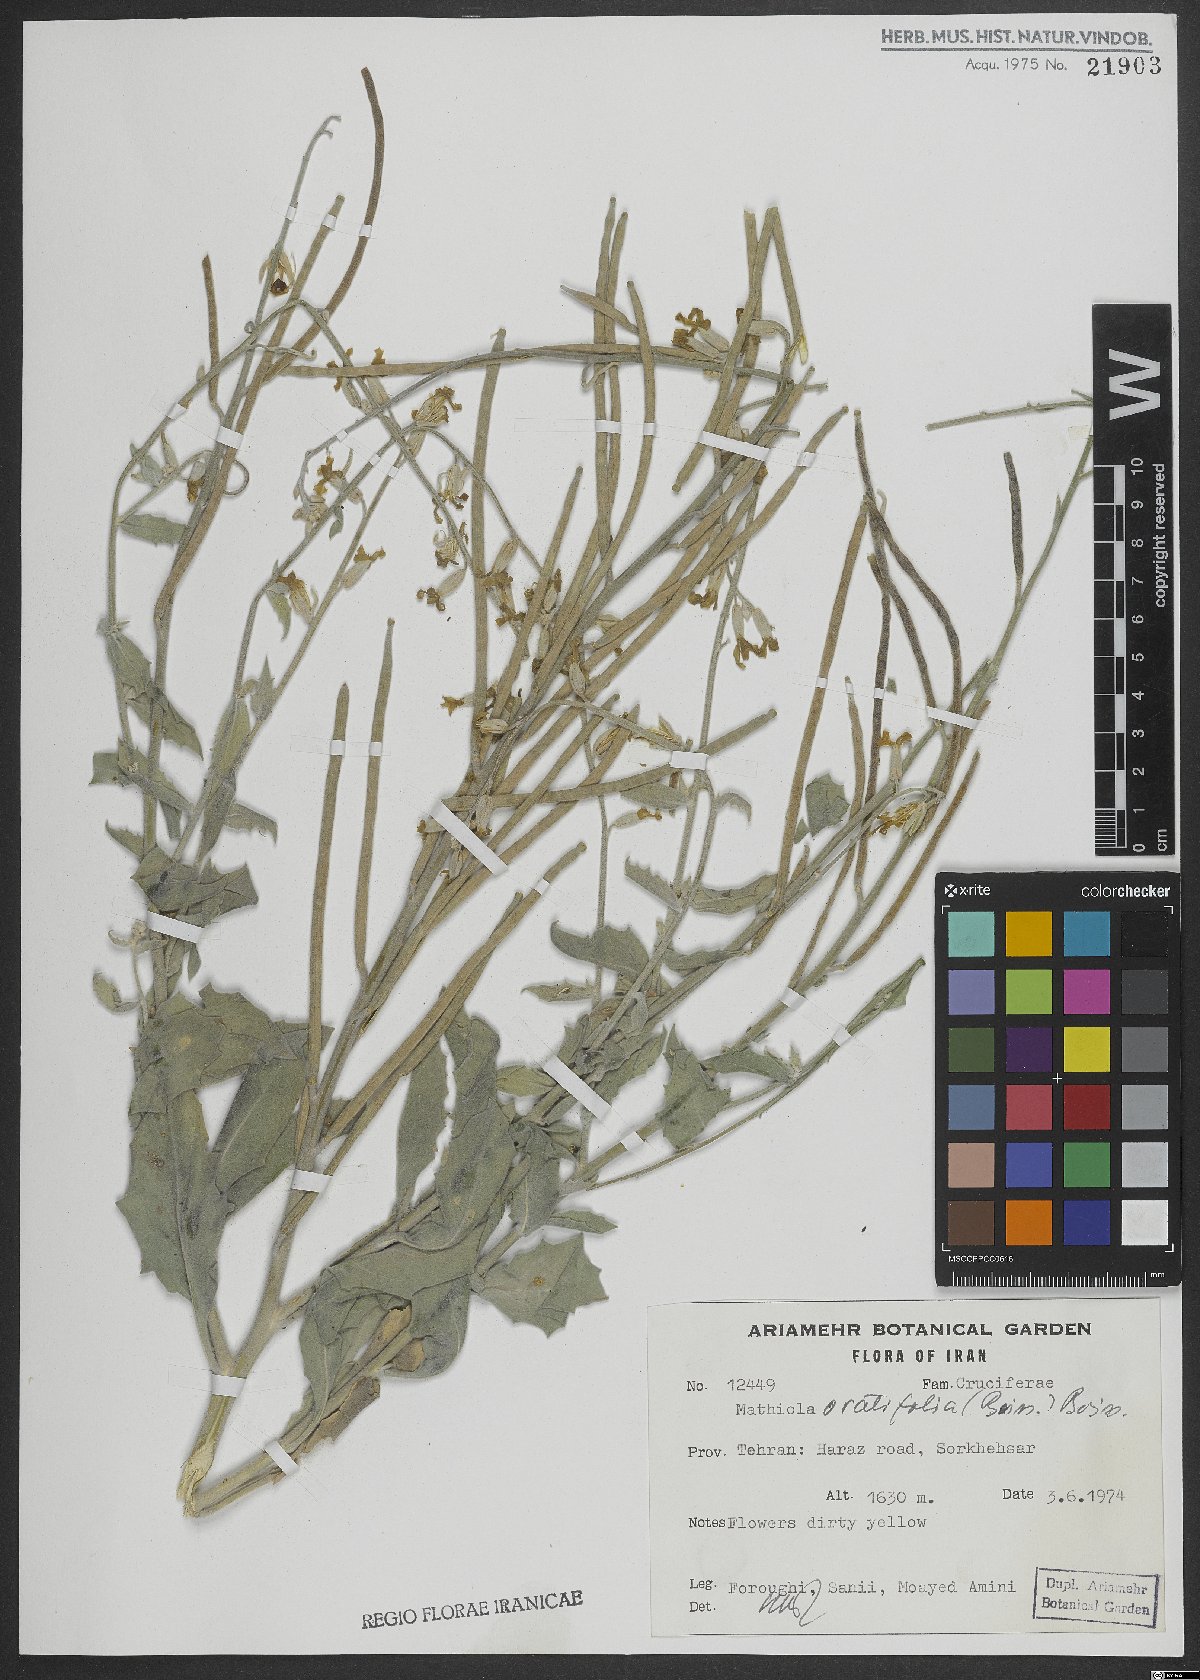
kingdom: Plantae
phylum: Tracheophyta
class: Magnoliopsida
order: Brassicales
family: Brassicaceae
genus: Matthiola
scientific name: Matthiola ovatifolia
